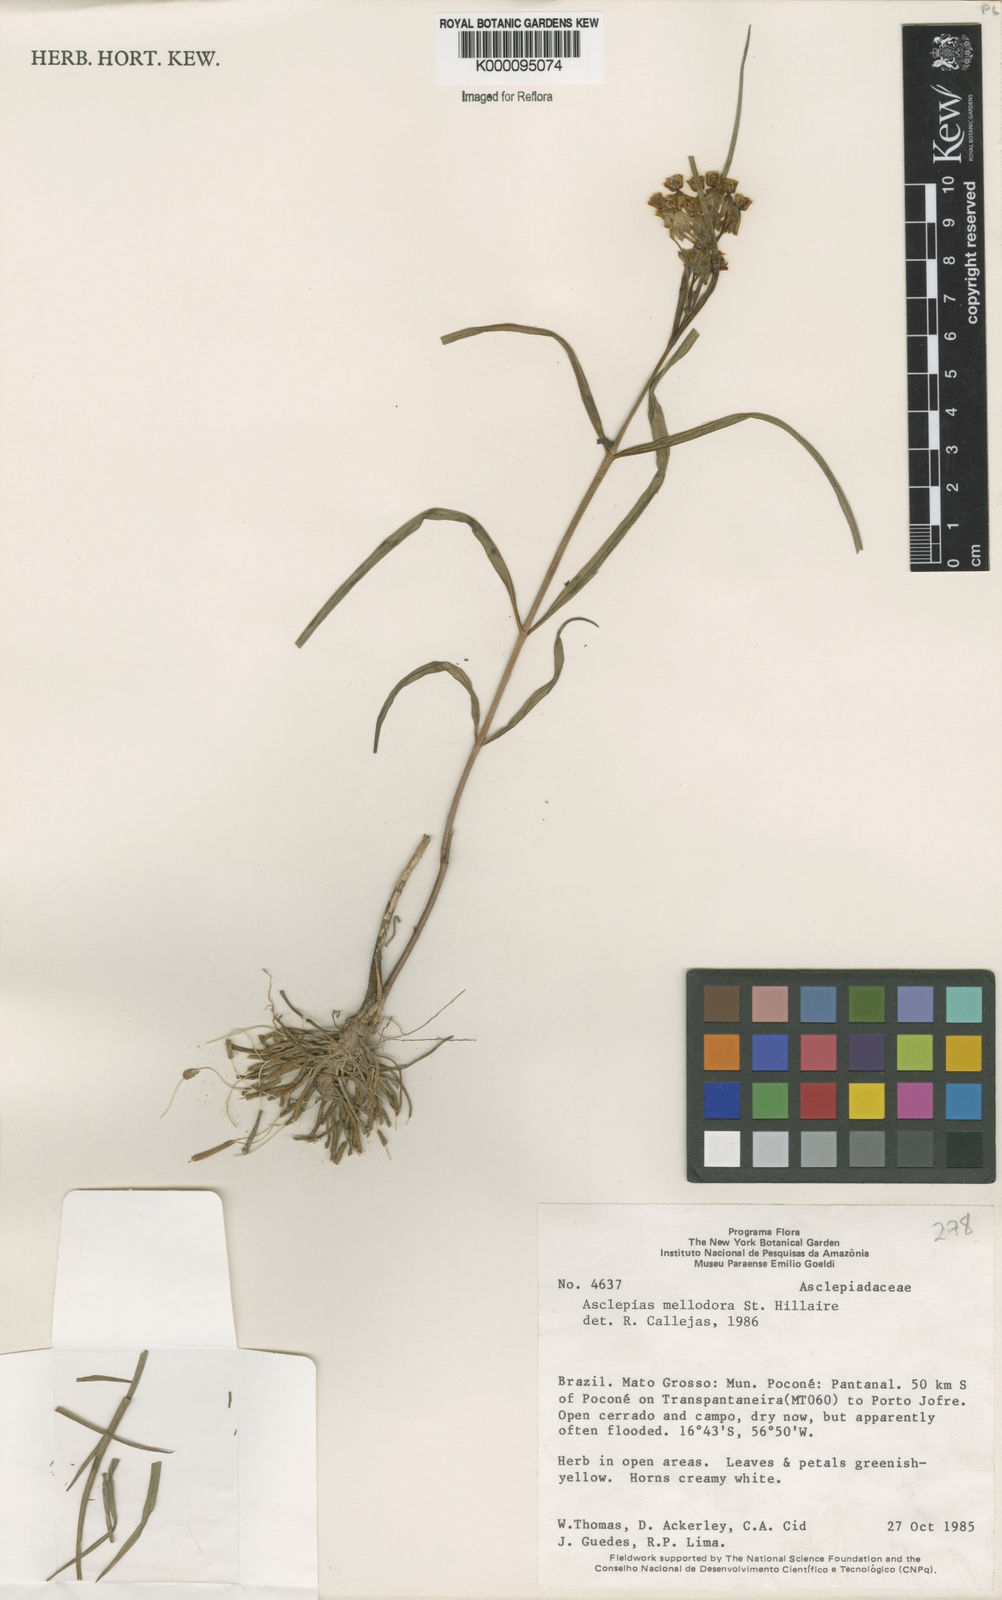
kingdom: Plantae
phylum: Tracheophyta
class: Magnoliopsida
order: Gentianales
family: Apocynaceae
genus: Asclepias
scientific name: Asclepias mellodora
